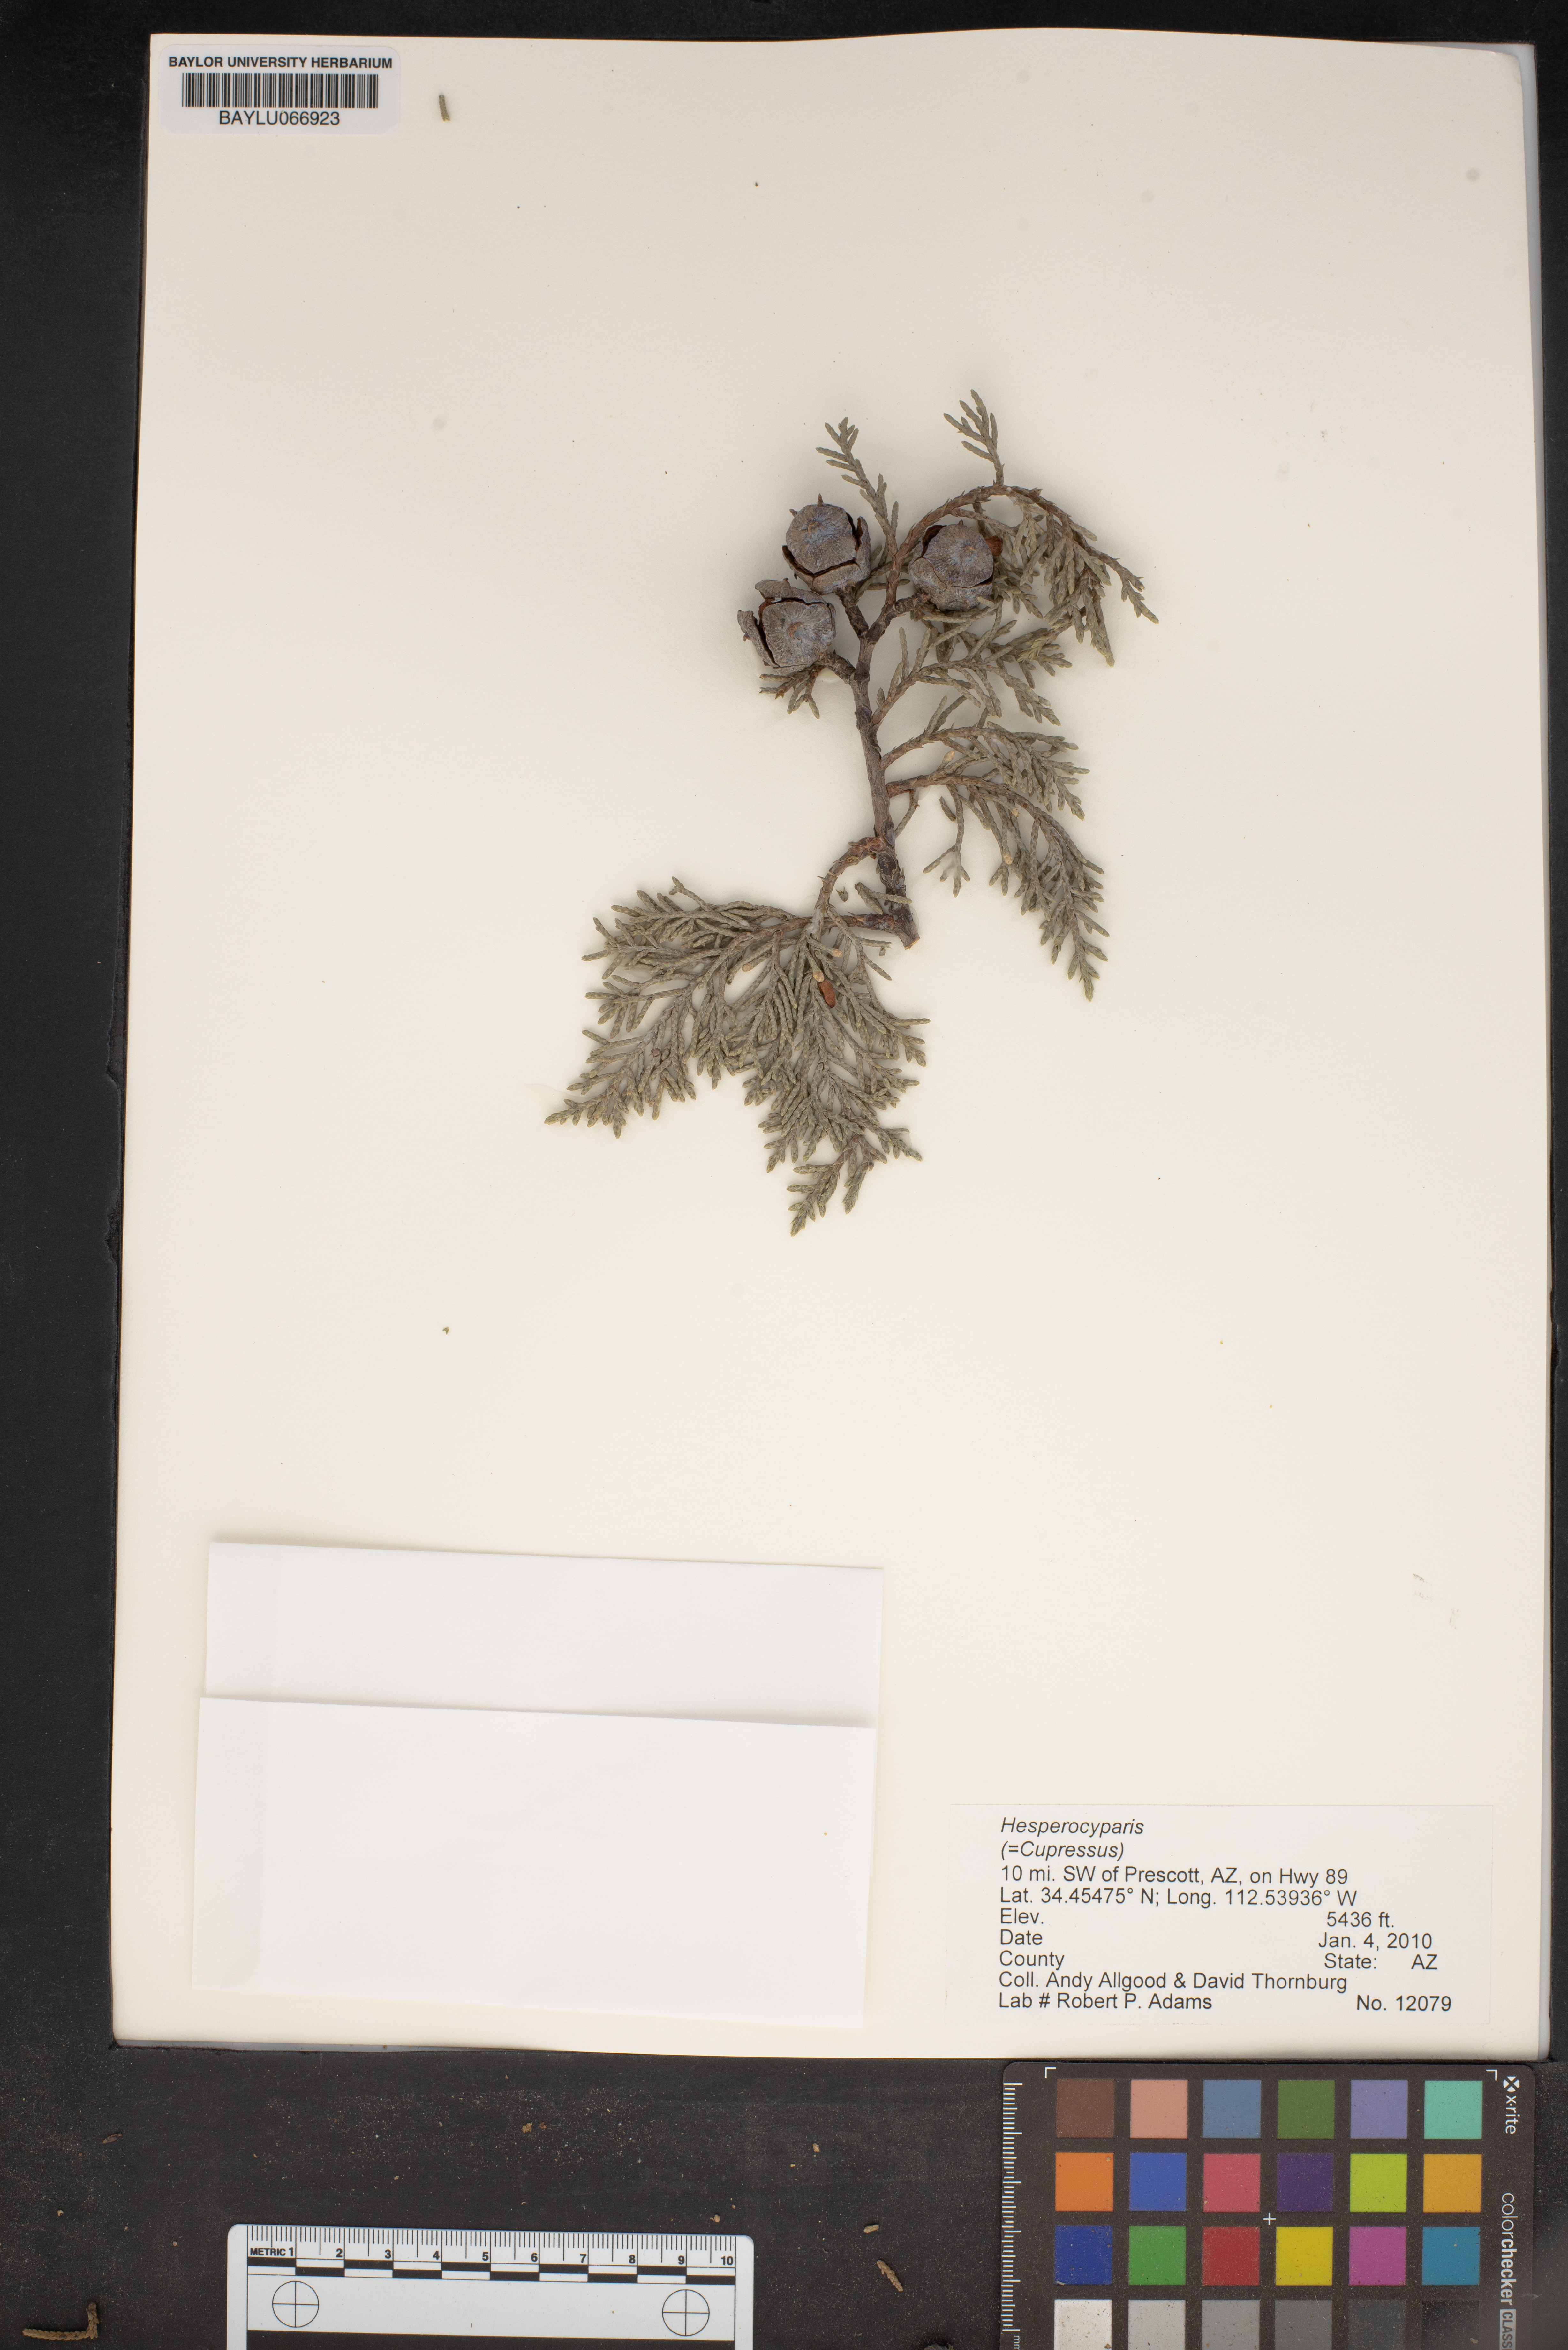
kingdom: Plantae
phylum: Tracheophyta
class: Pinopsida
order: Pinales
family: Cupressaceae
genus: Hesperocyparis
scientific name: Hesperocyparis
